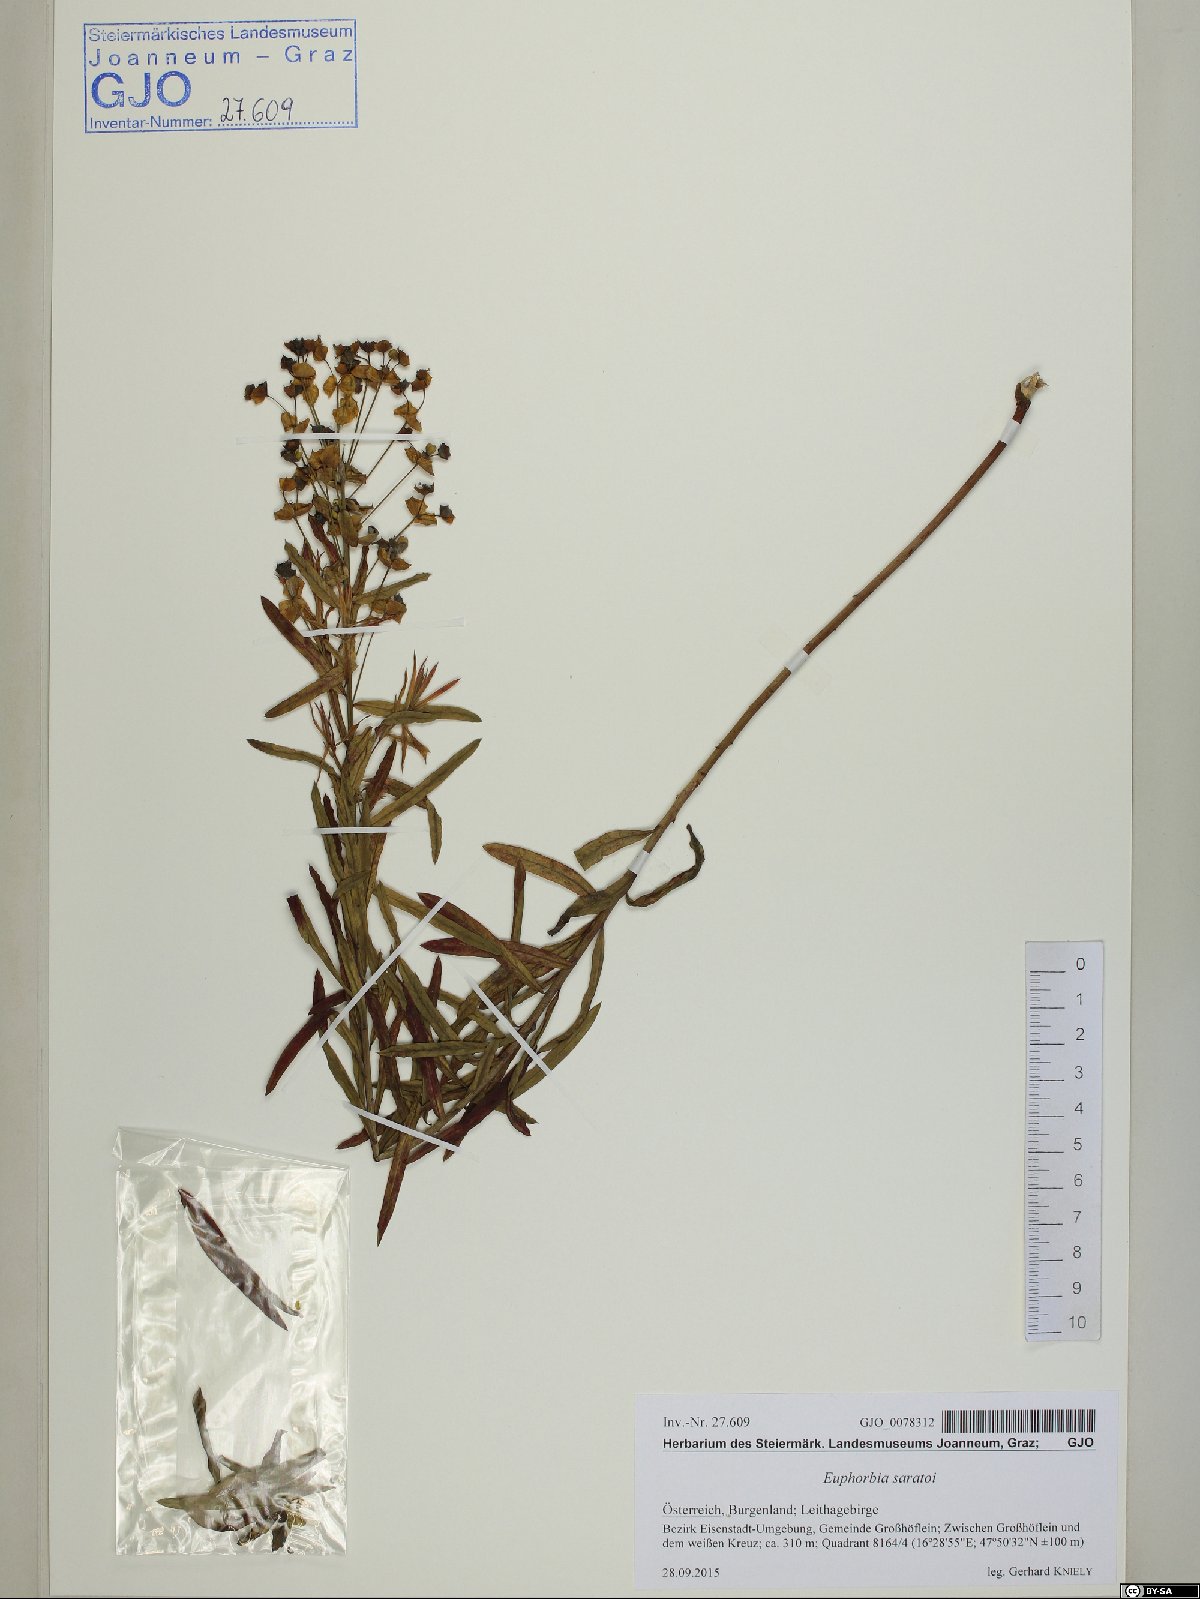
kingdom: Plantae
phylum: Tracheophyta
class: Magnoliopsida
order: Malpighiales
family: Euphorbiaceae
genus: Euphorbia
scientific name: Euphorbia saratoi
